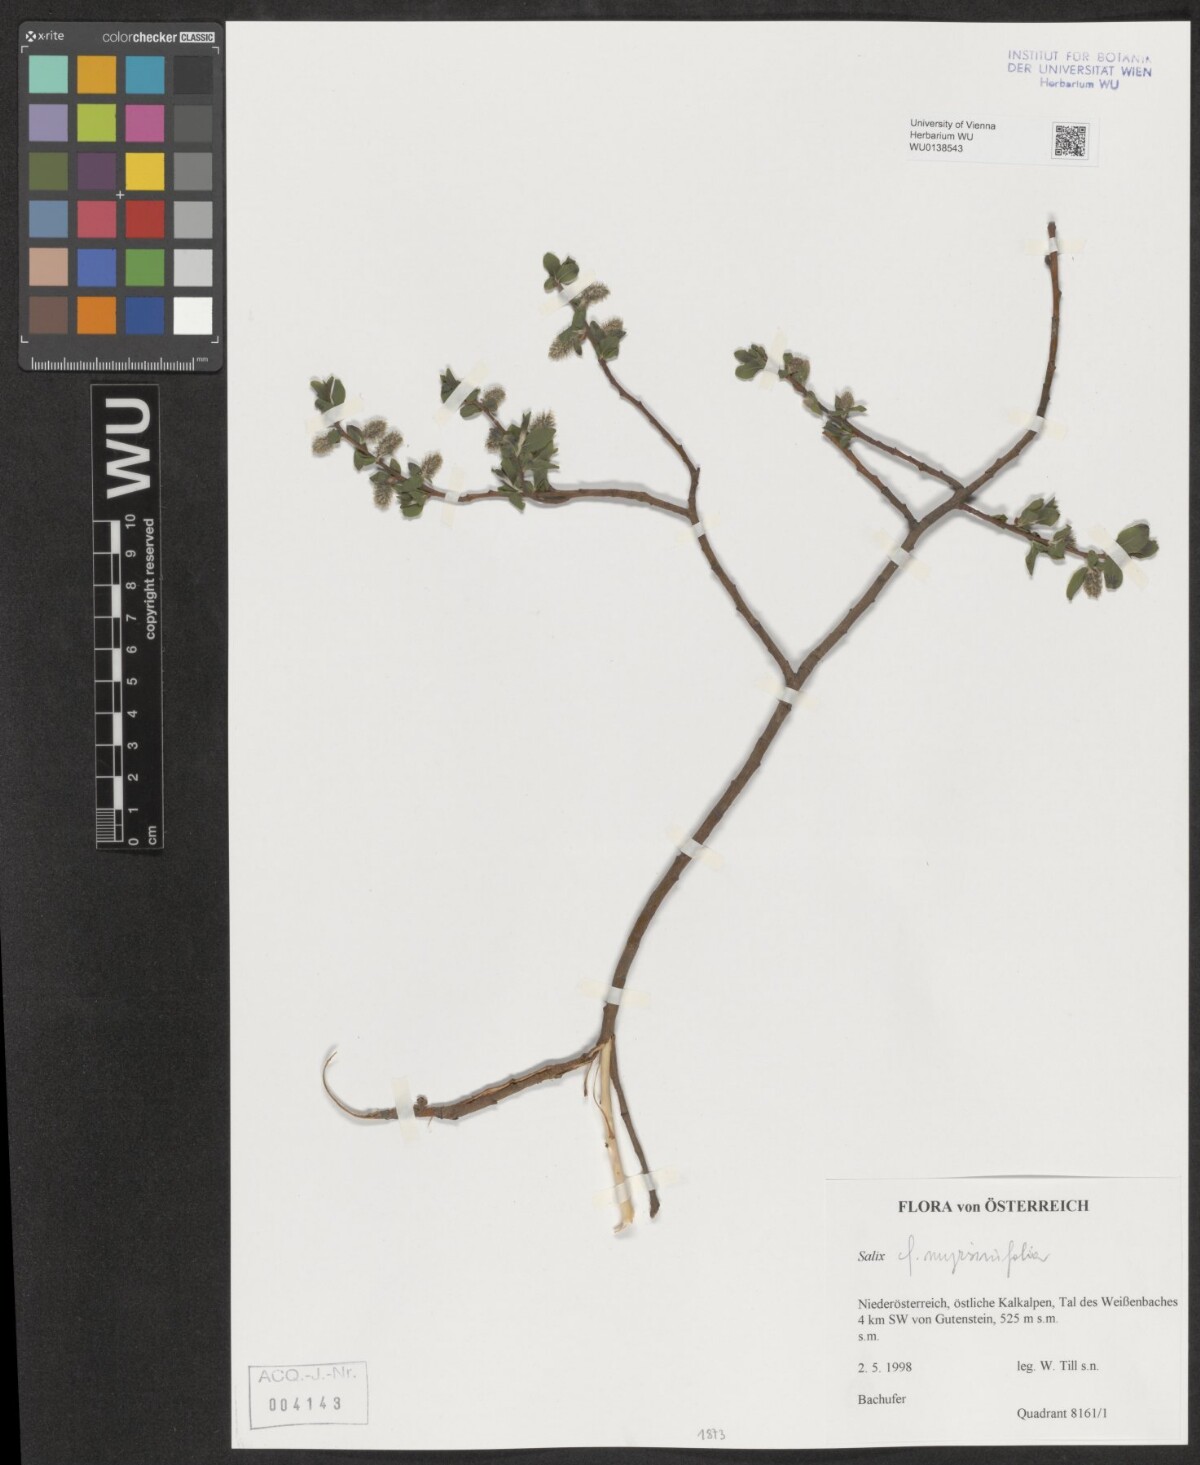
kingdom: Plantae
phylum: Tracheophyta
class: Magnoliopsida
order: Malpighiales
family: Salicaceae
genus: Salix
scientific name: Salix myrsinifolia
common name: Dark-leaved willow
